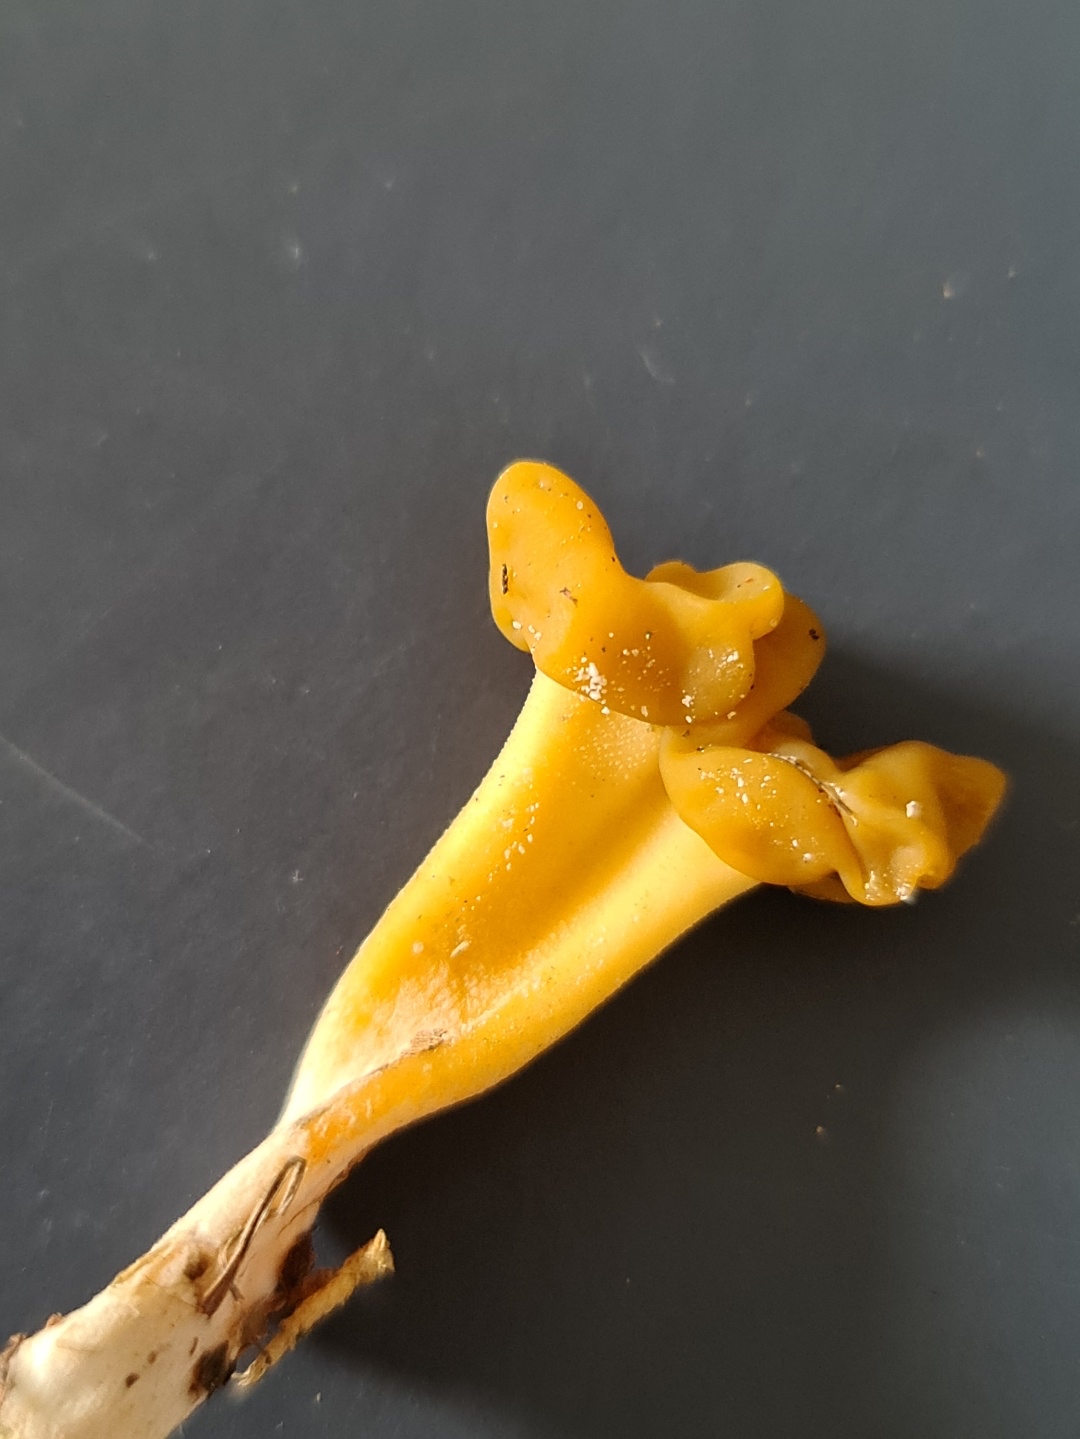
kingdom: Fungi
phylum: Ascomycota
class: Leotiomycetes
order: Leotiales
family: Leotiaceae
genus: Leotia
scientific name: Leotia lubrica
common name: ravsvamp
